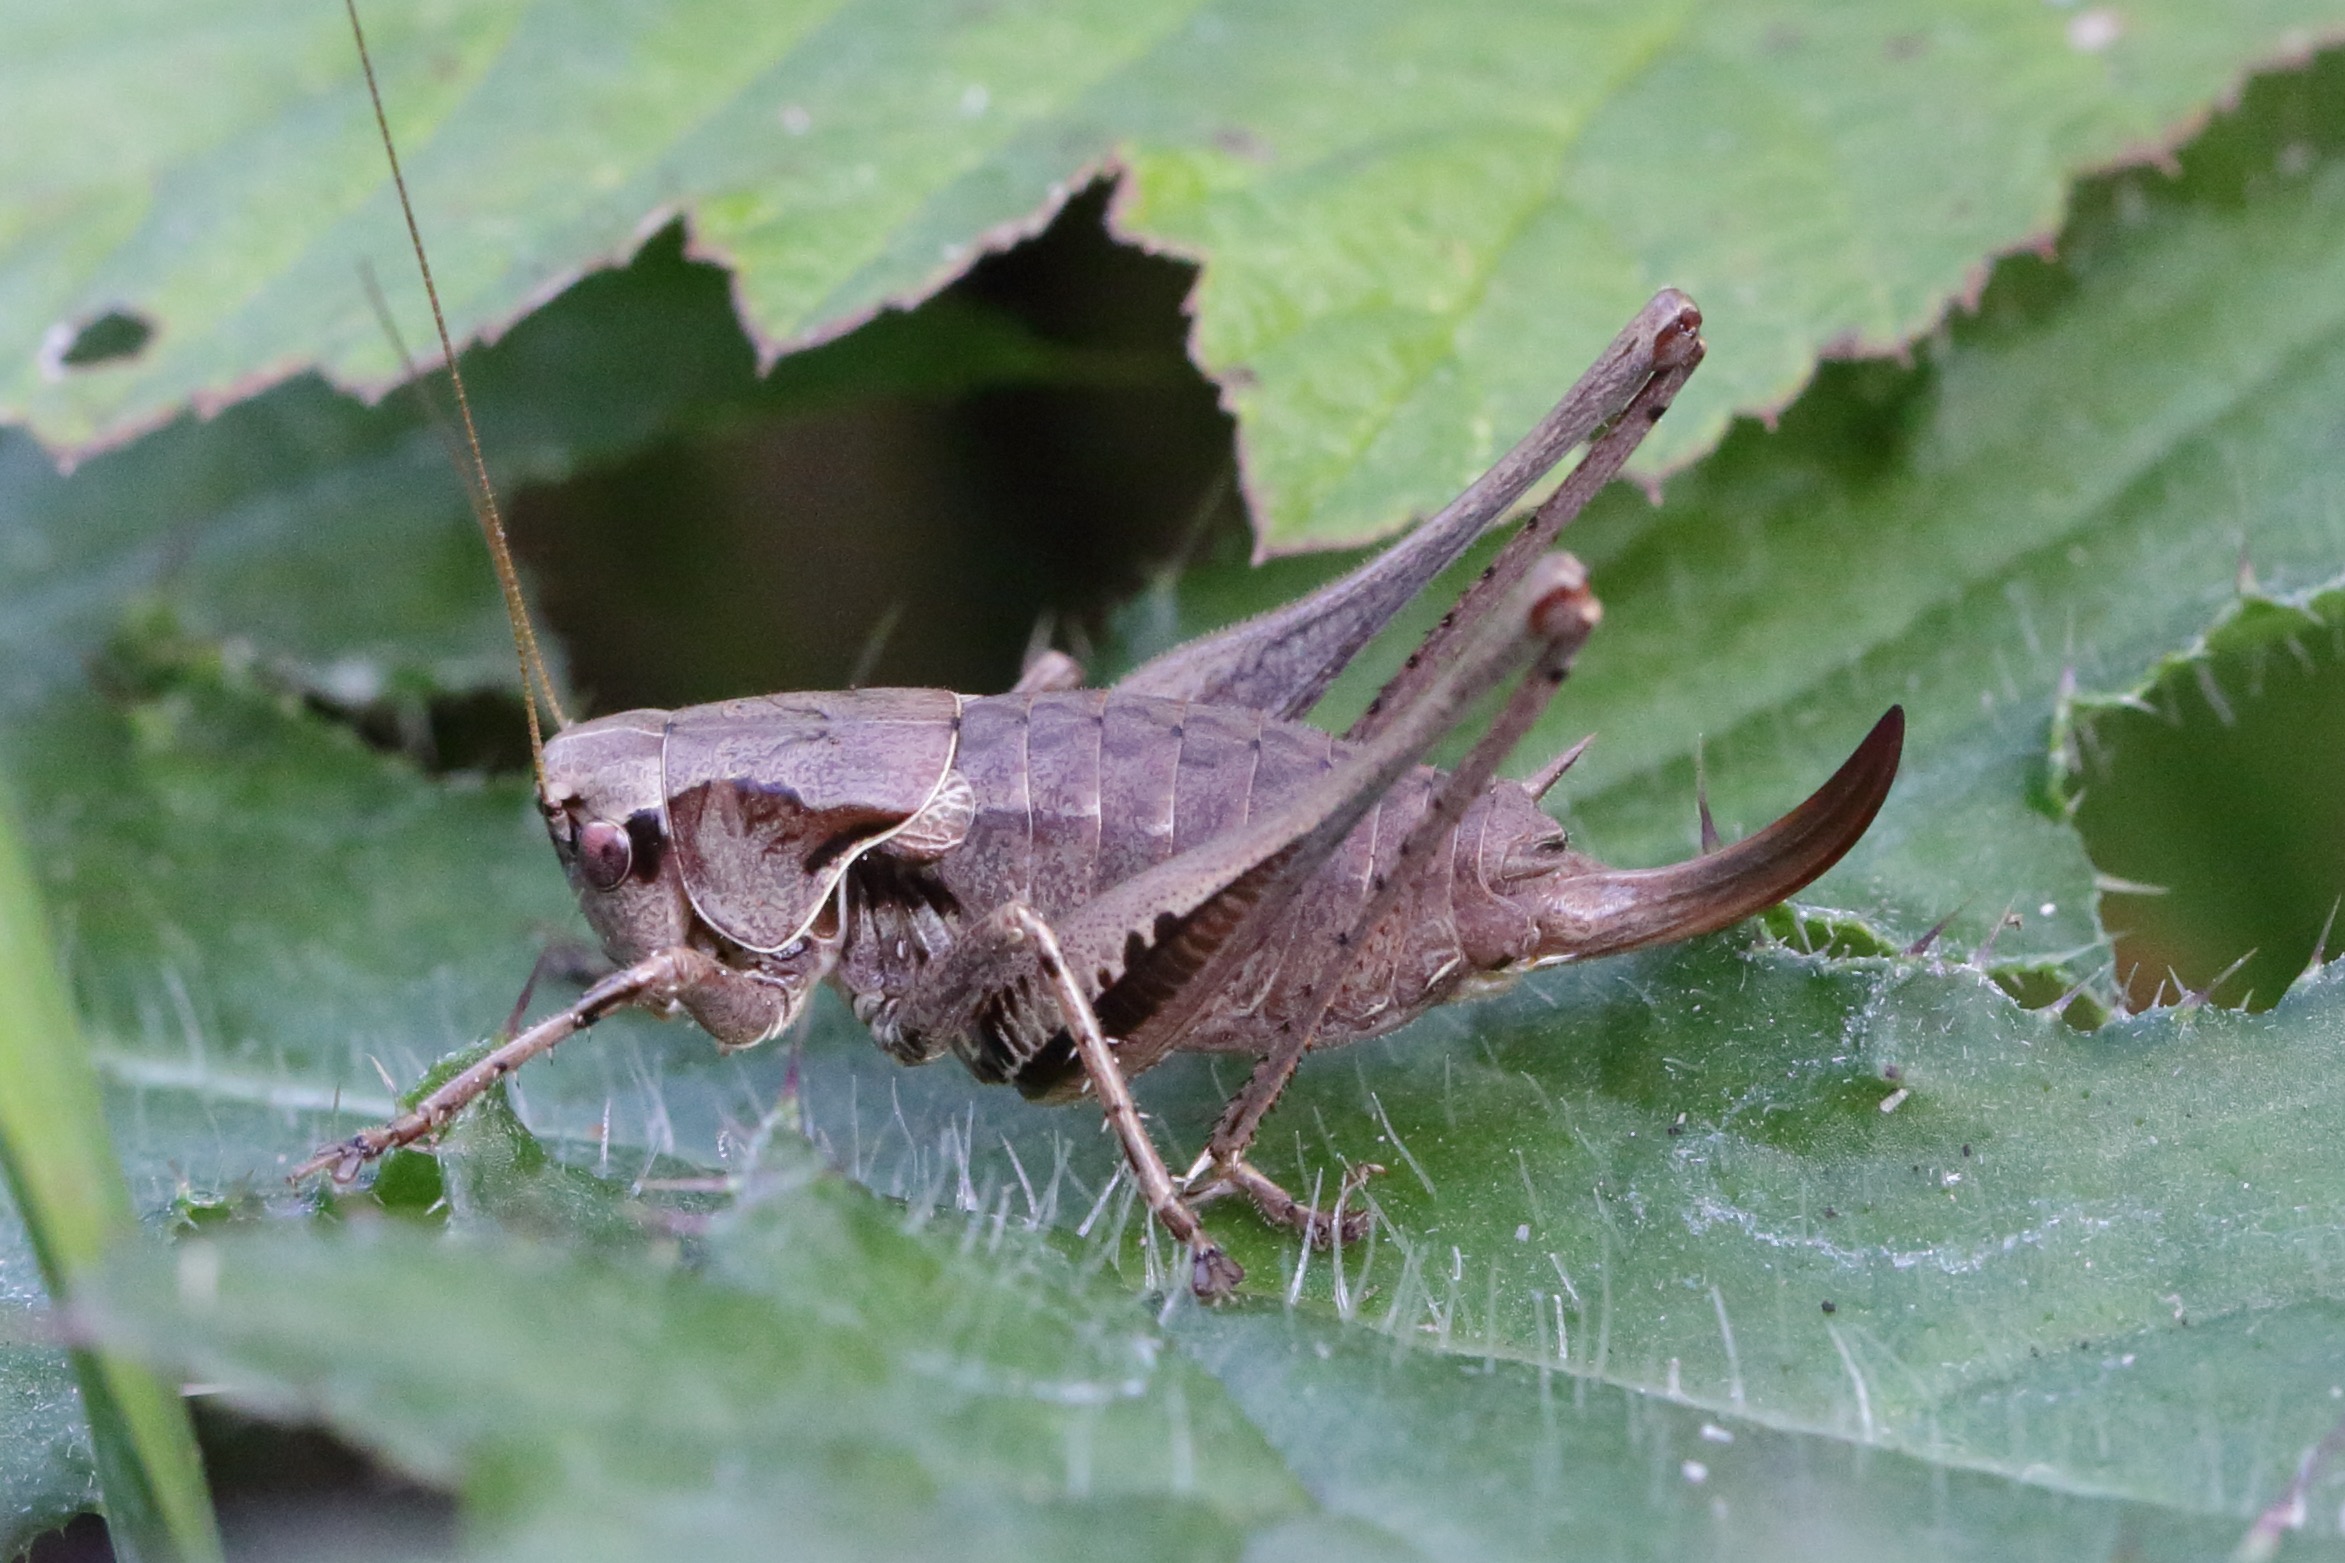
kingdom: Animalia
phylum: Arthropoda
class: Insecta
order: Orthoptera
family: Tettigoniidae
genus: Pholidoptera
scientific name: Pholidoptera griseoaptera
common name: Buskgræshoppe
